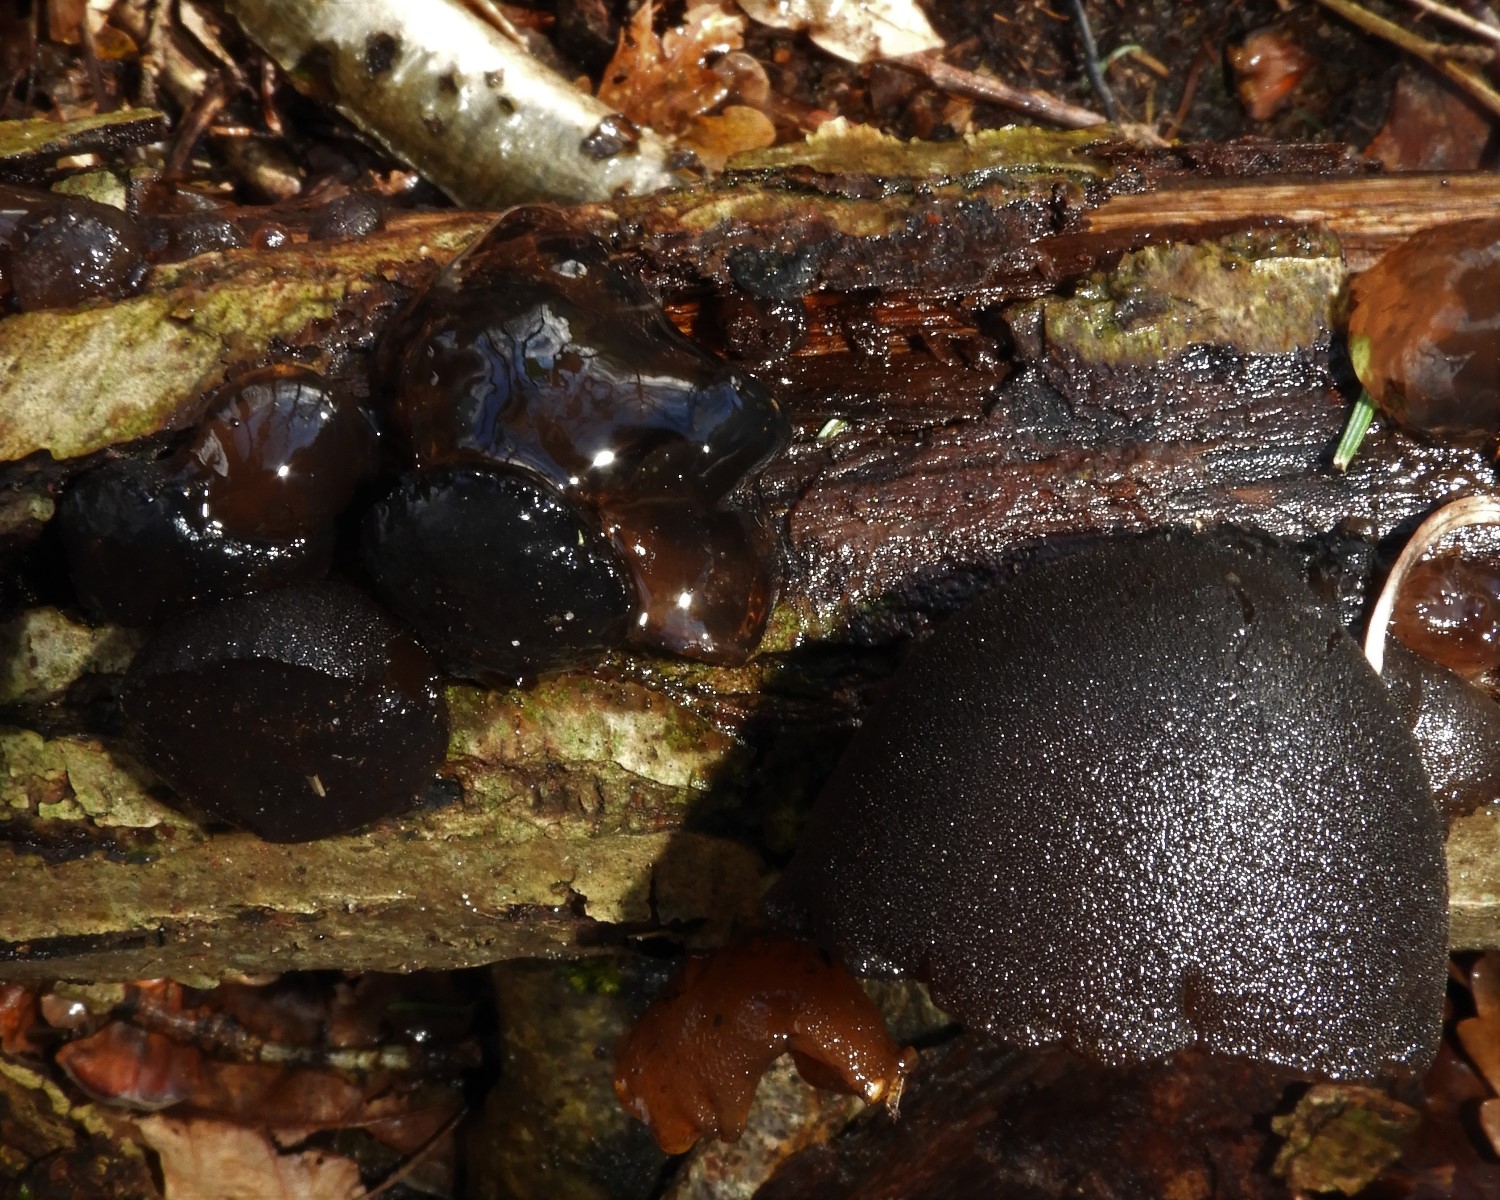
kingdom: Fungi
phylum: Basidiomycota
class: Agaricomycetes
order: Auriculariales
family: Auriculariaceae
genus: Exidia
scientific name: Exidia glandulosa
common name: ege-bævretop
